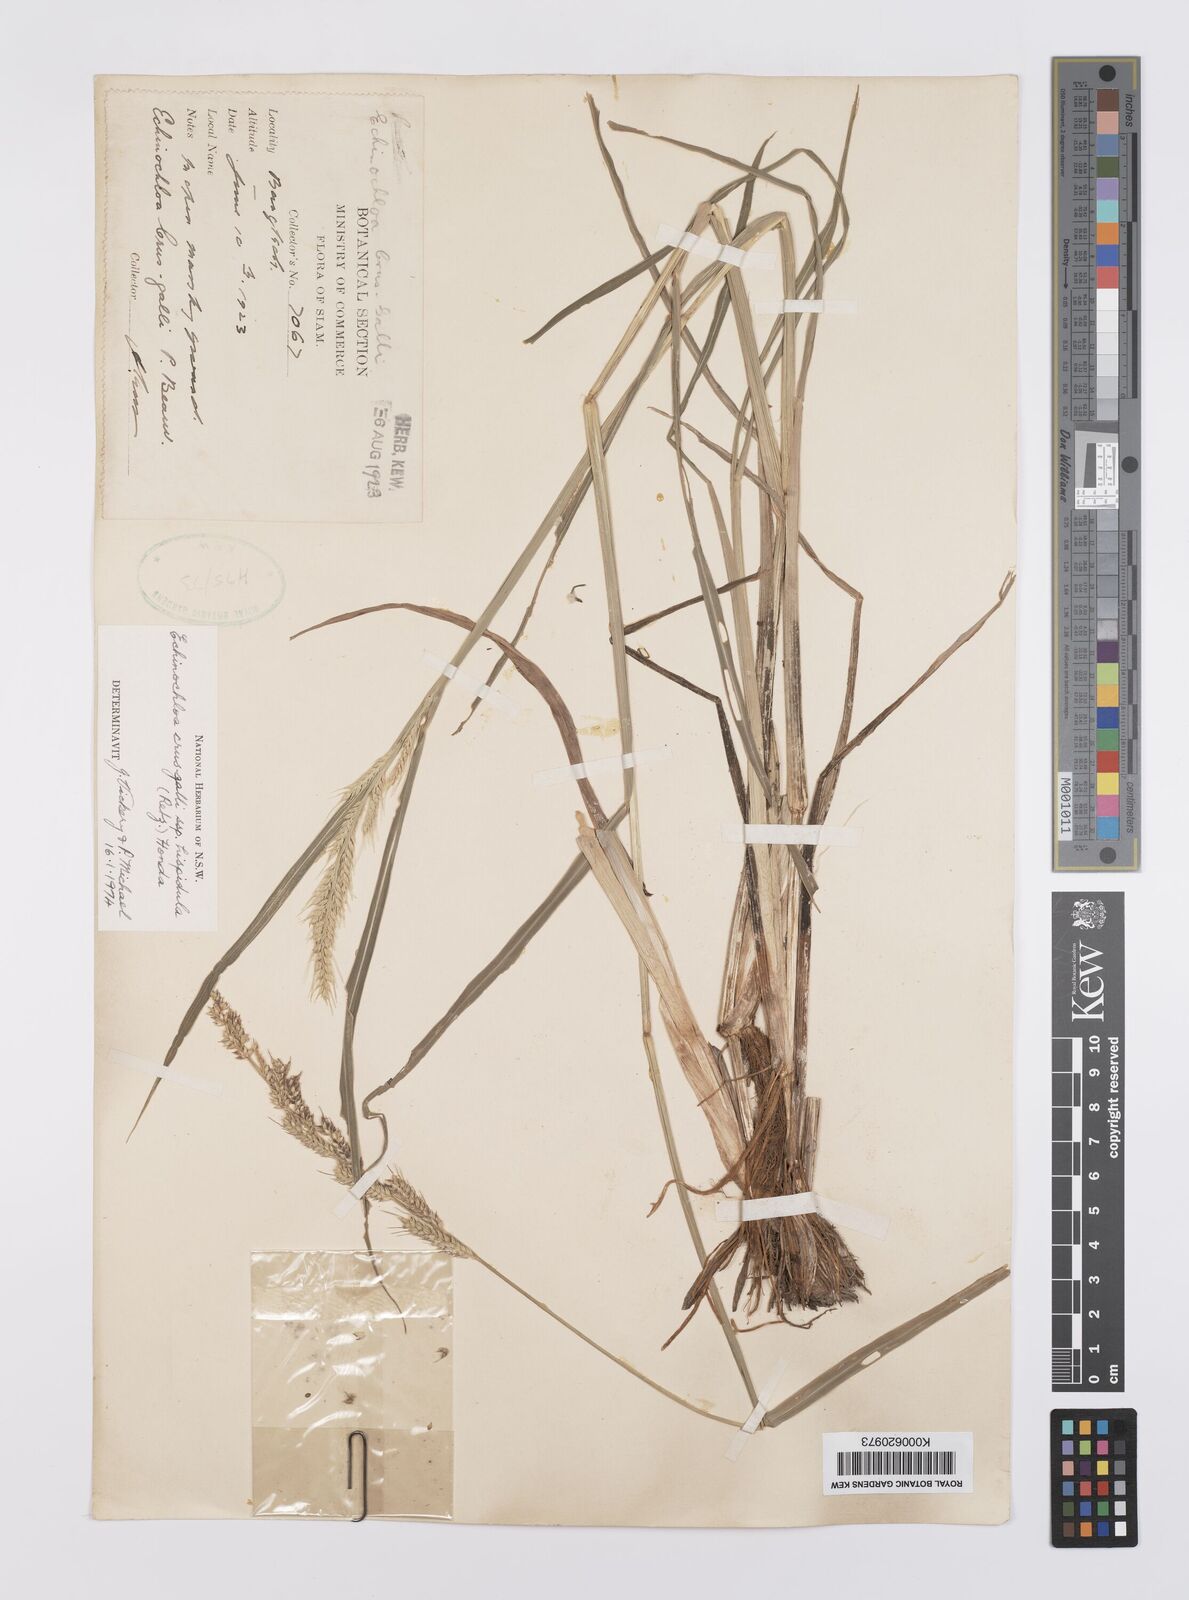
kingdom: Plantae
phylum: Tracheophyta
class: Liliopsida
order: Poales
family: Poaceae
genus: Echinochloa
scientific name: Echinochloa crus-galli
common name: Cockspur
